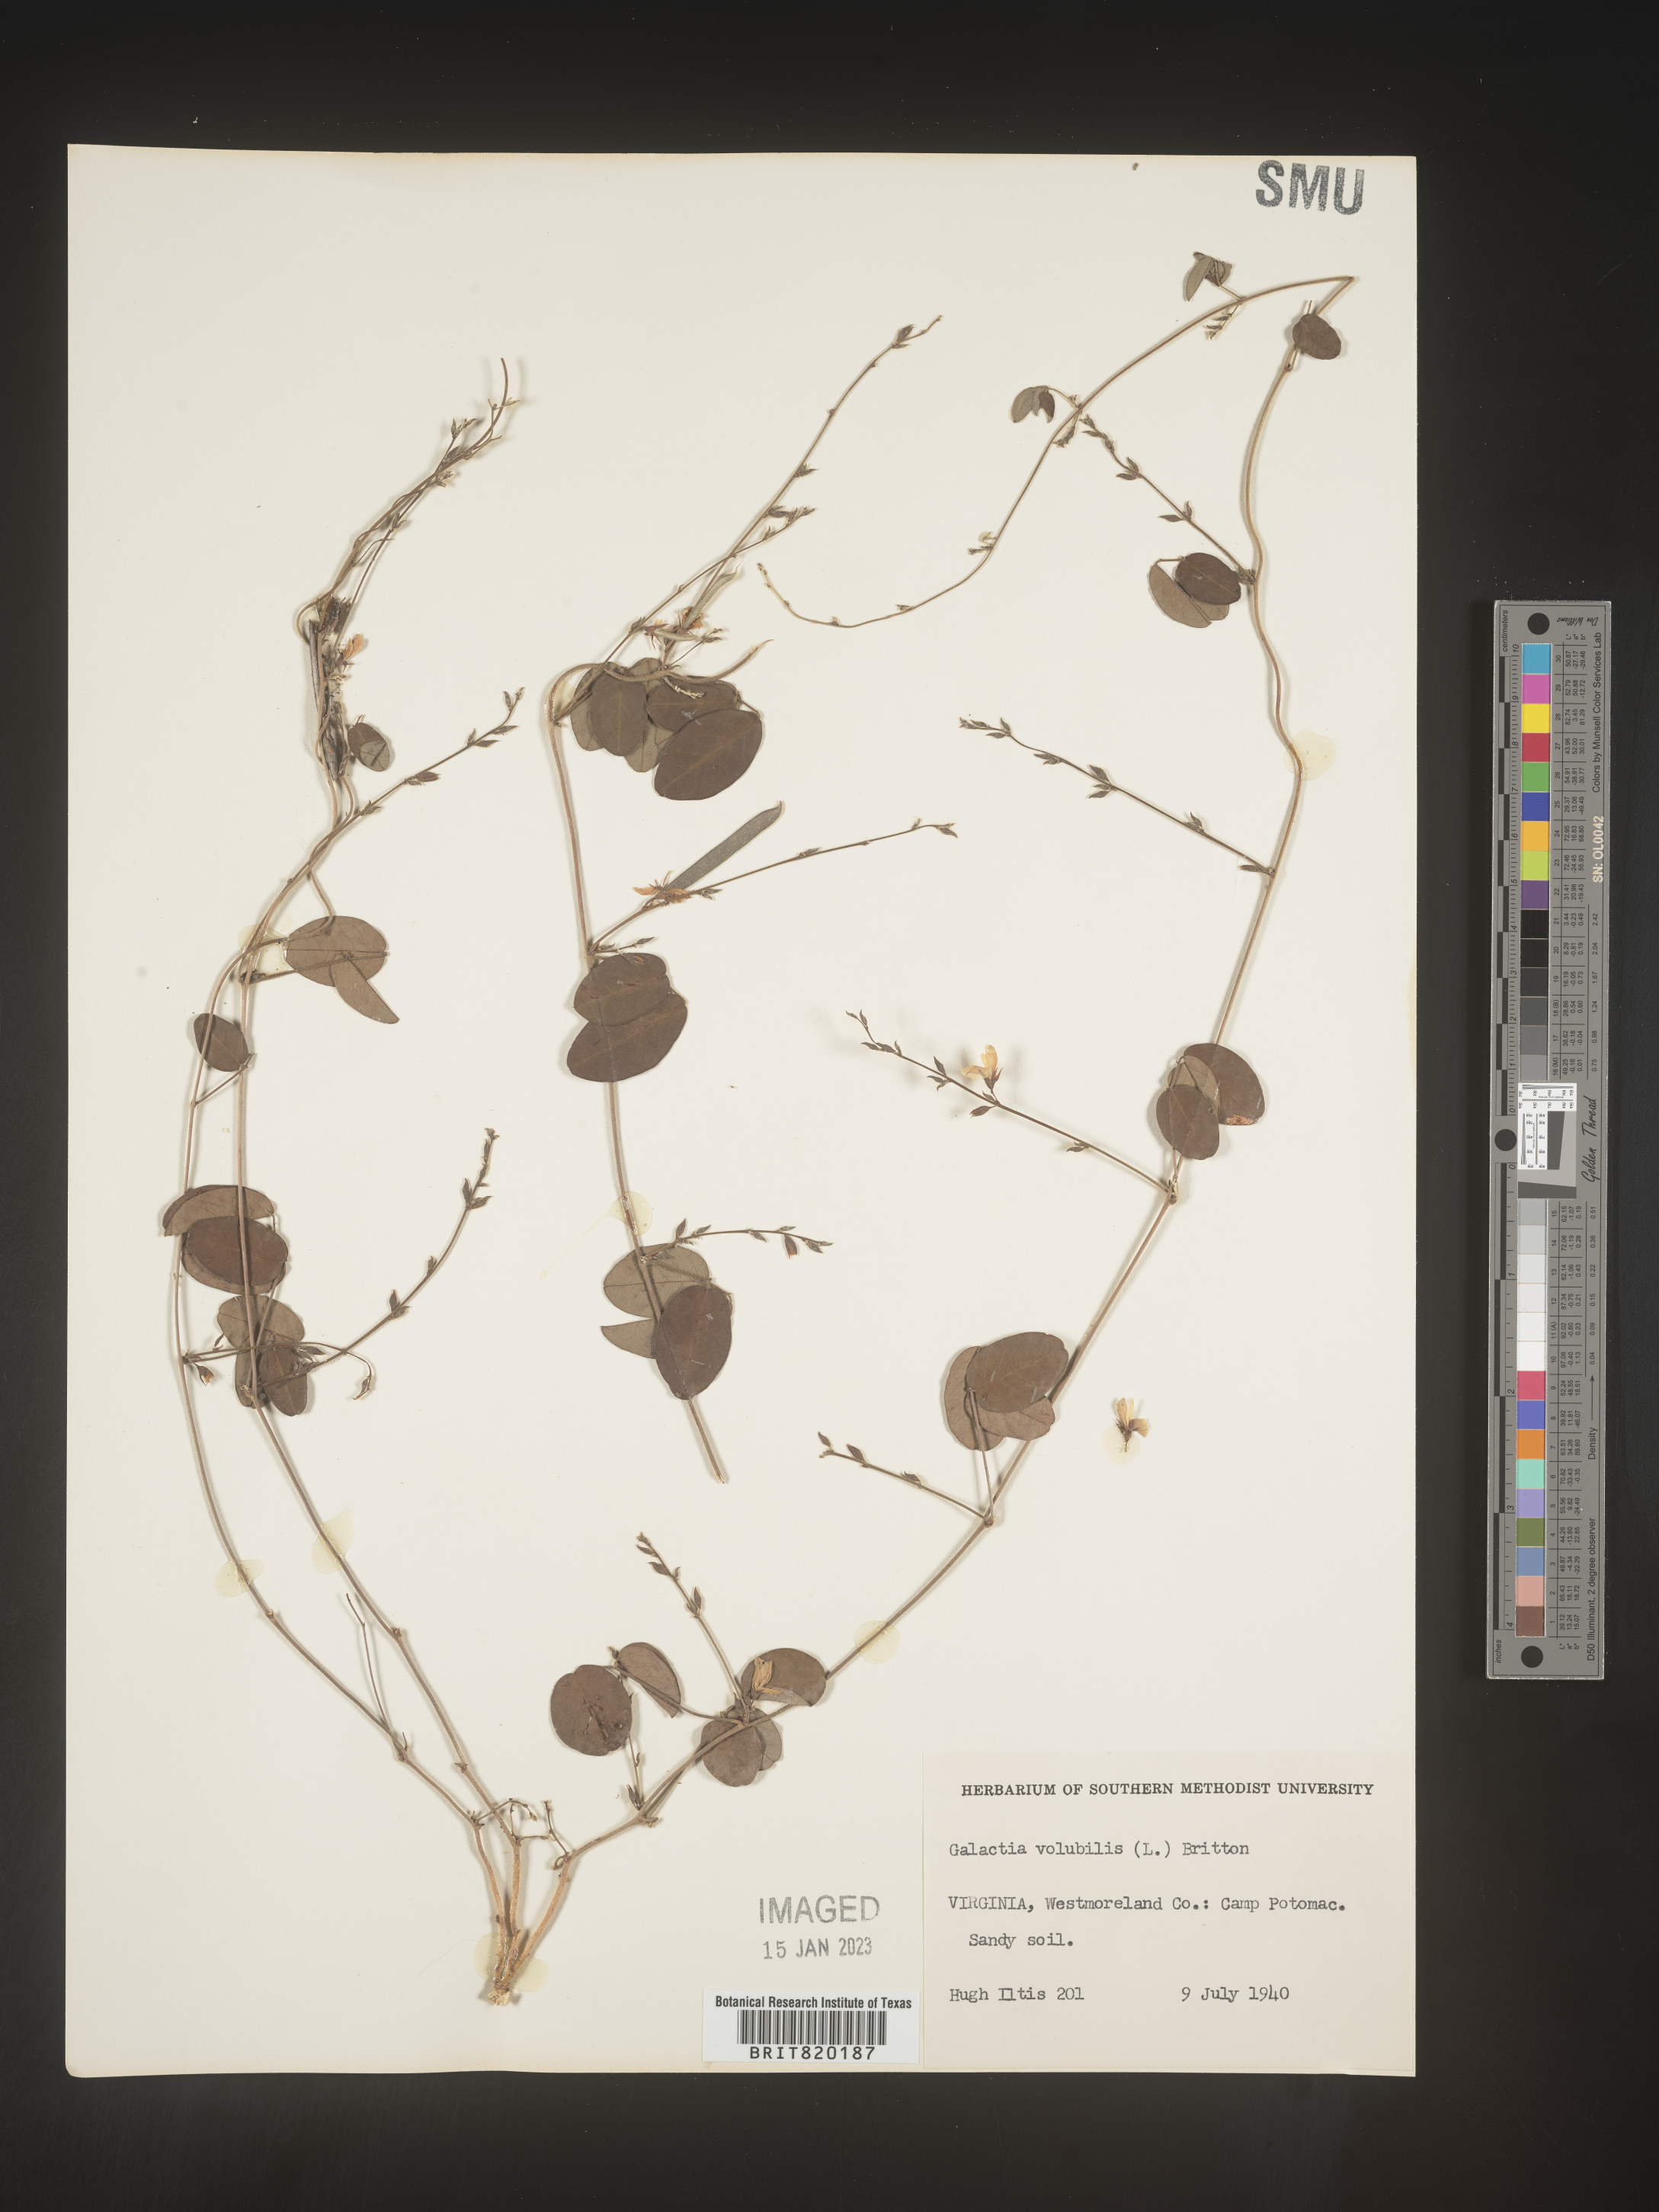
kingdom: Plantae
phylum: Tracheophyta
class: Magnoliopsida
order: Fabales
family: Fabaceae
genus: Galactia
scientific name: Galactia volubilis
